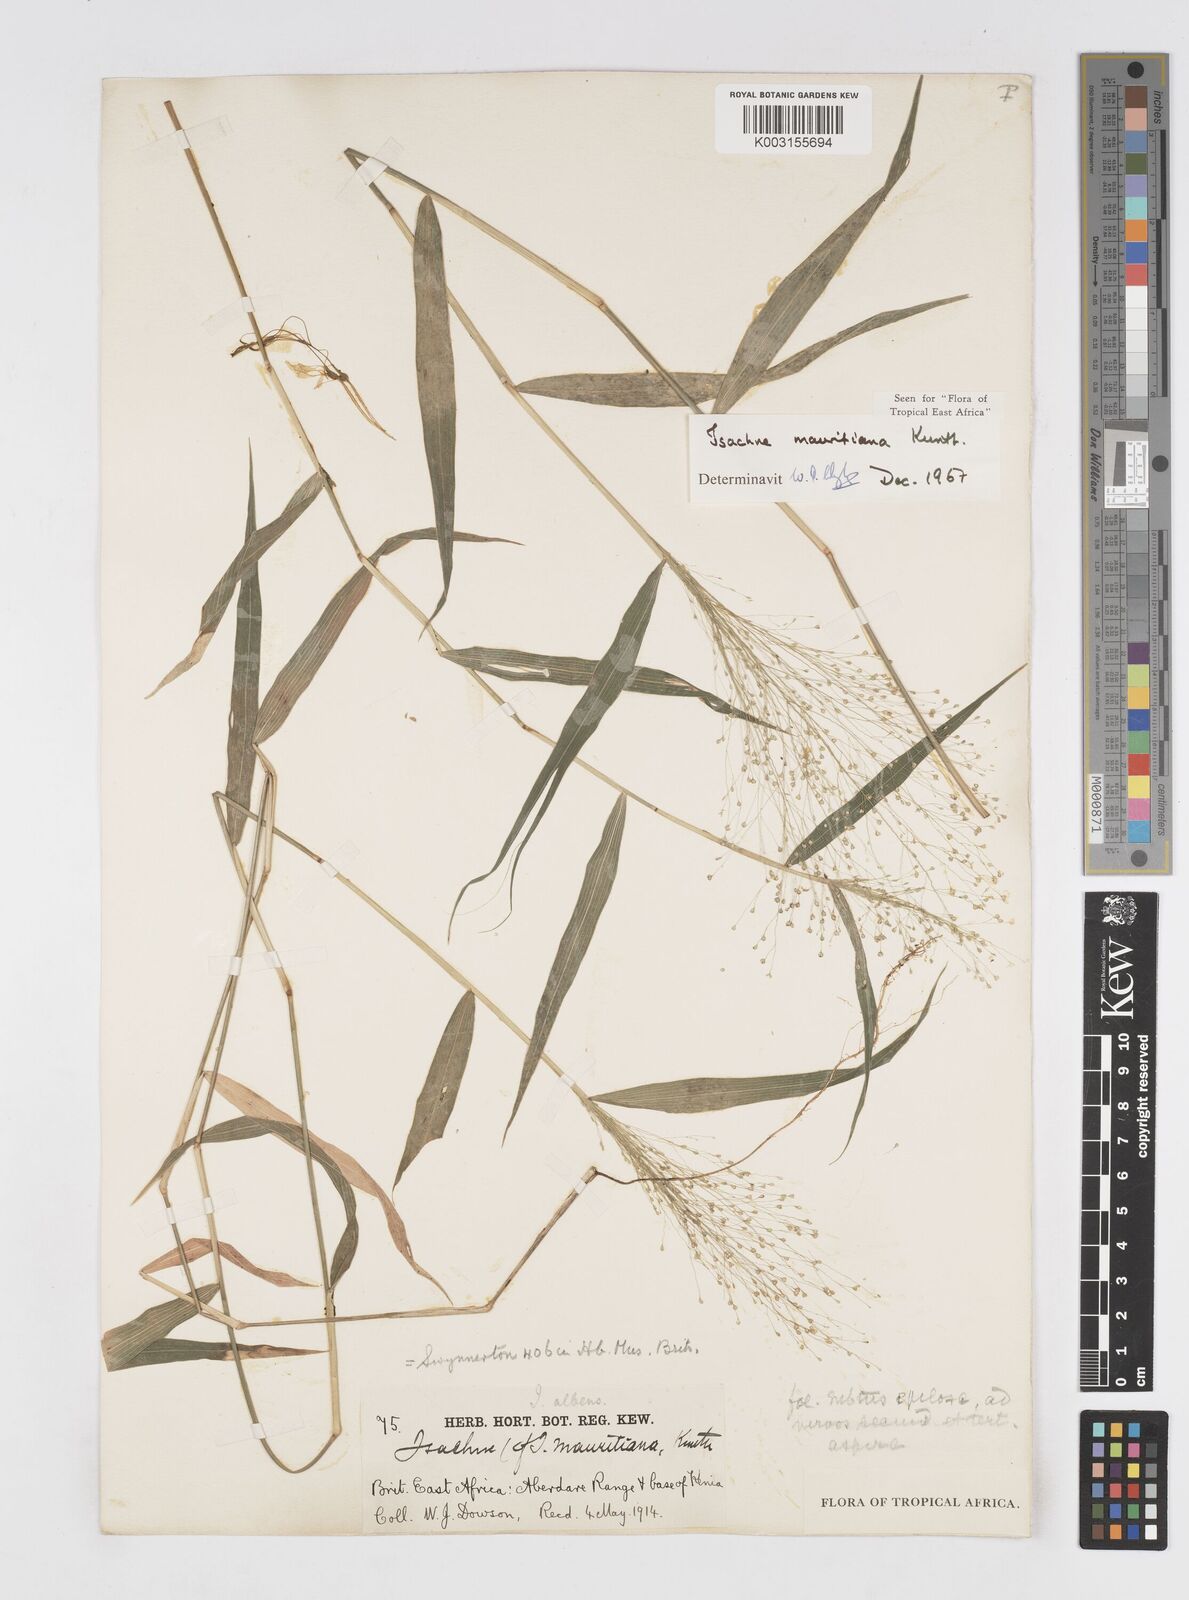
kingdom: Plantae
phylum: Tracheophyta
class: Liliopsida
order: Poales
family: Poaceae
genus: Isachne
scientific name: Isachne mauritiana
